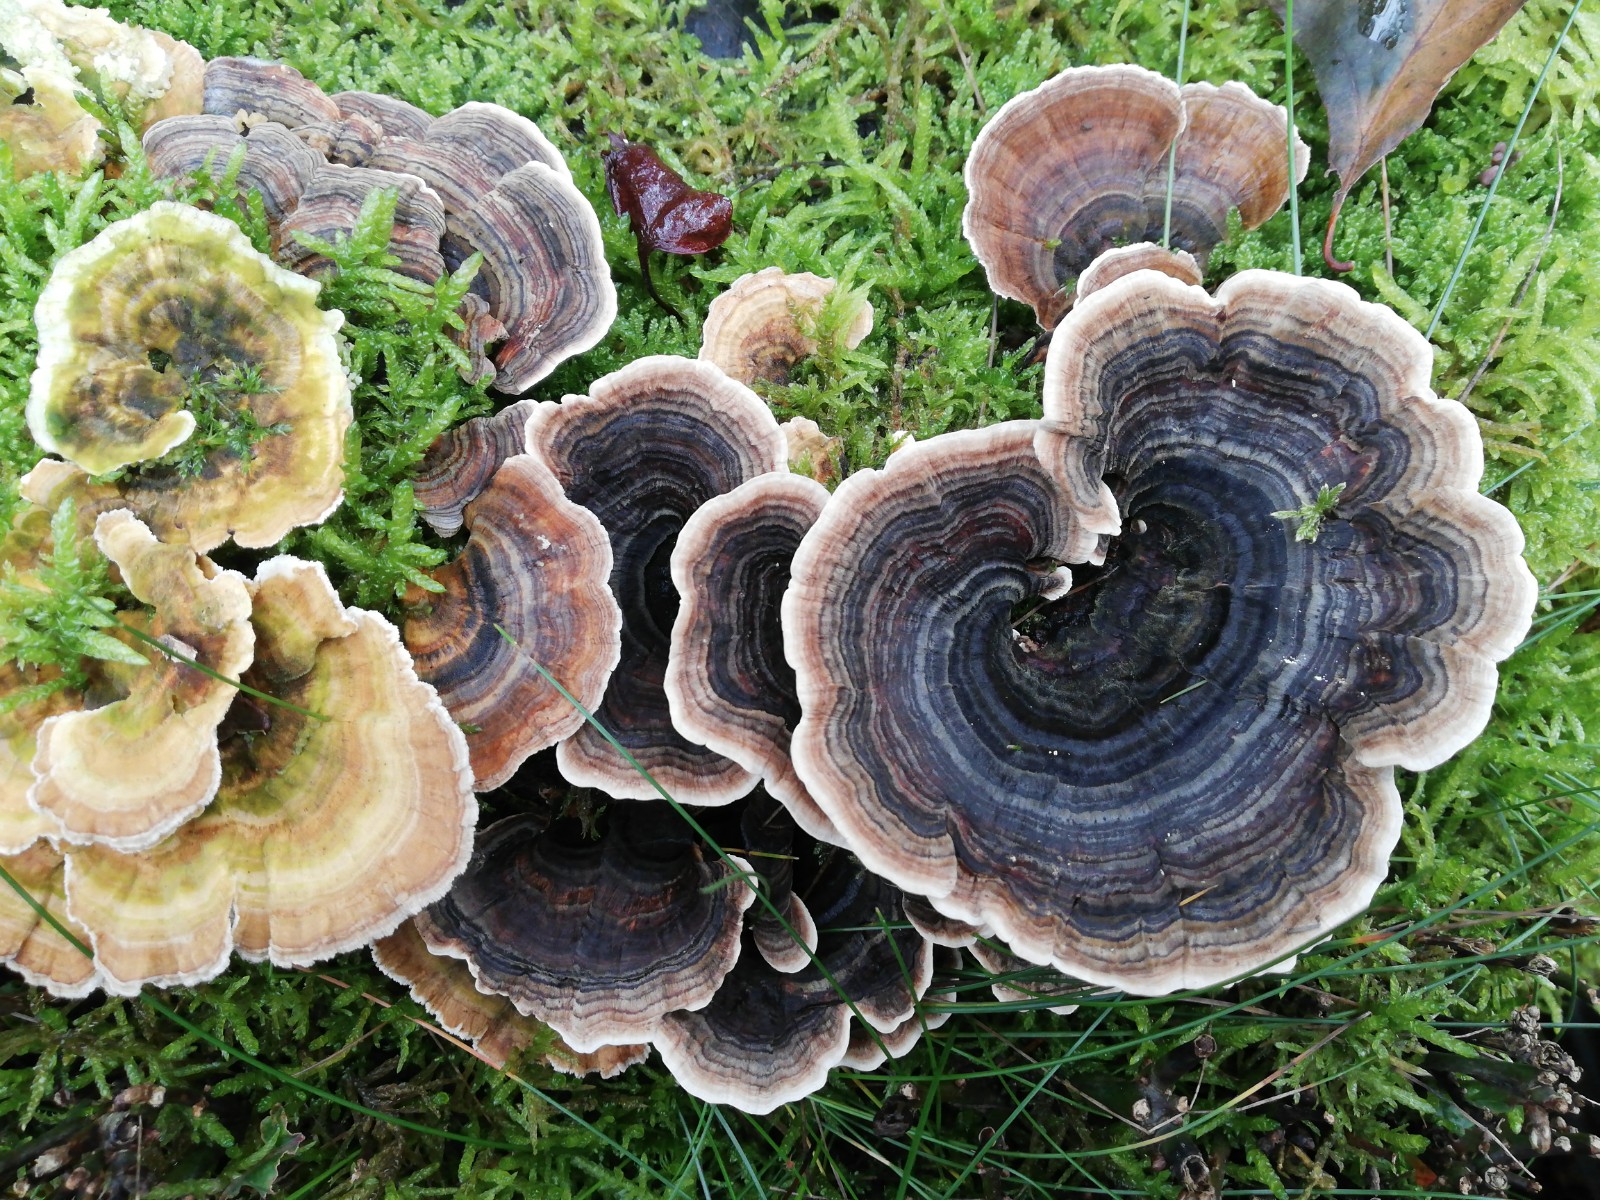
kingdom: Fungi
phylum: Basidiomycota
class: Agaricomycetes
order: Polyporales
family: Polyporaceae
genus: Trametes
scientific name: Trametes versicolor
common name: broget læderporesvamp
